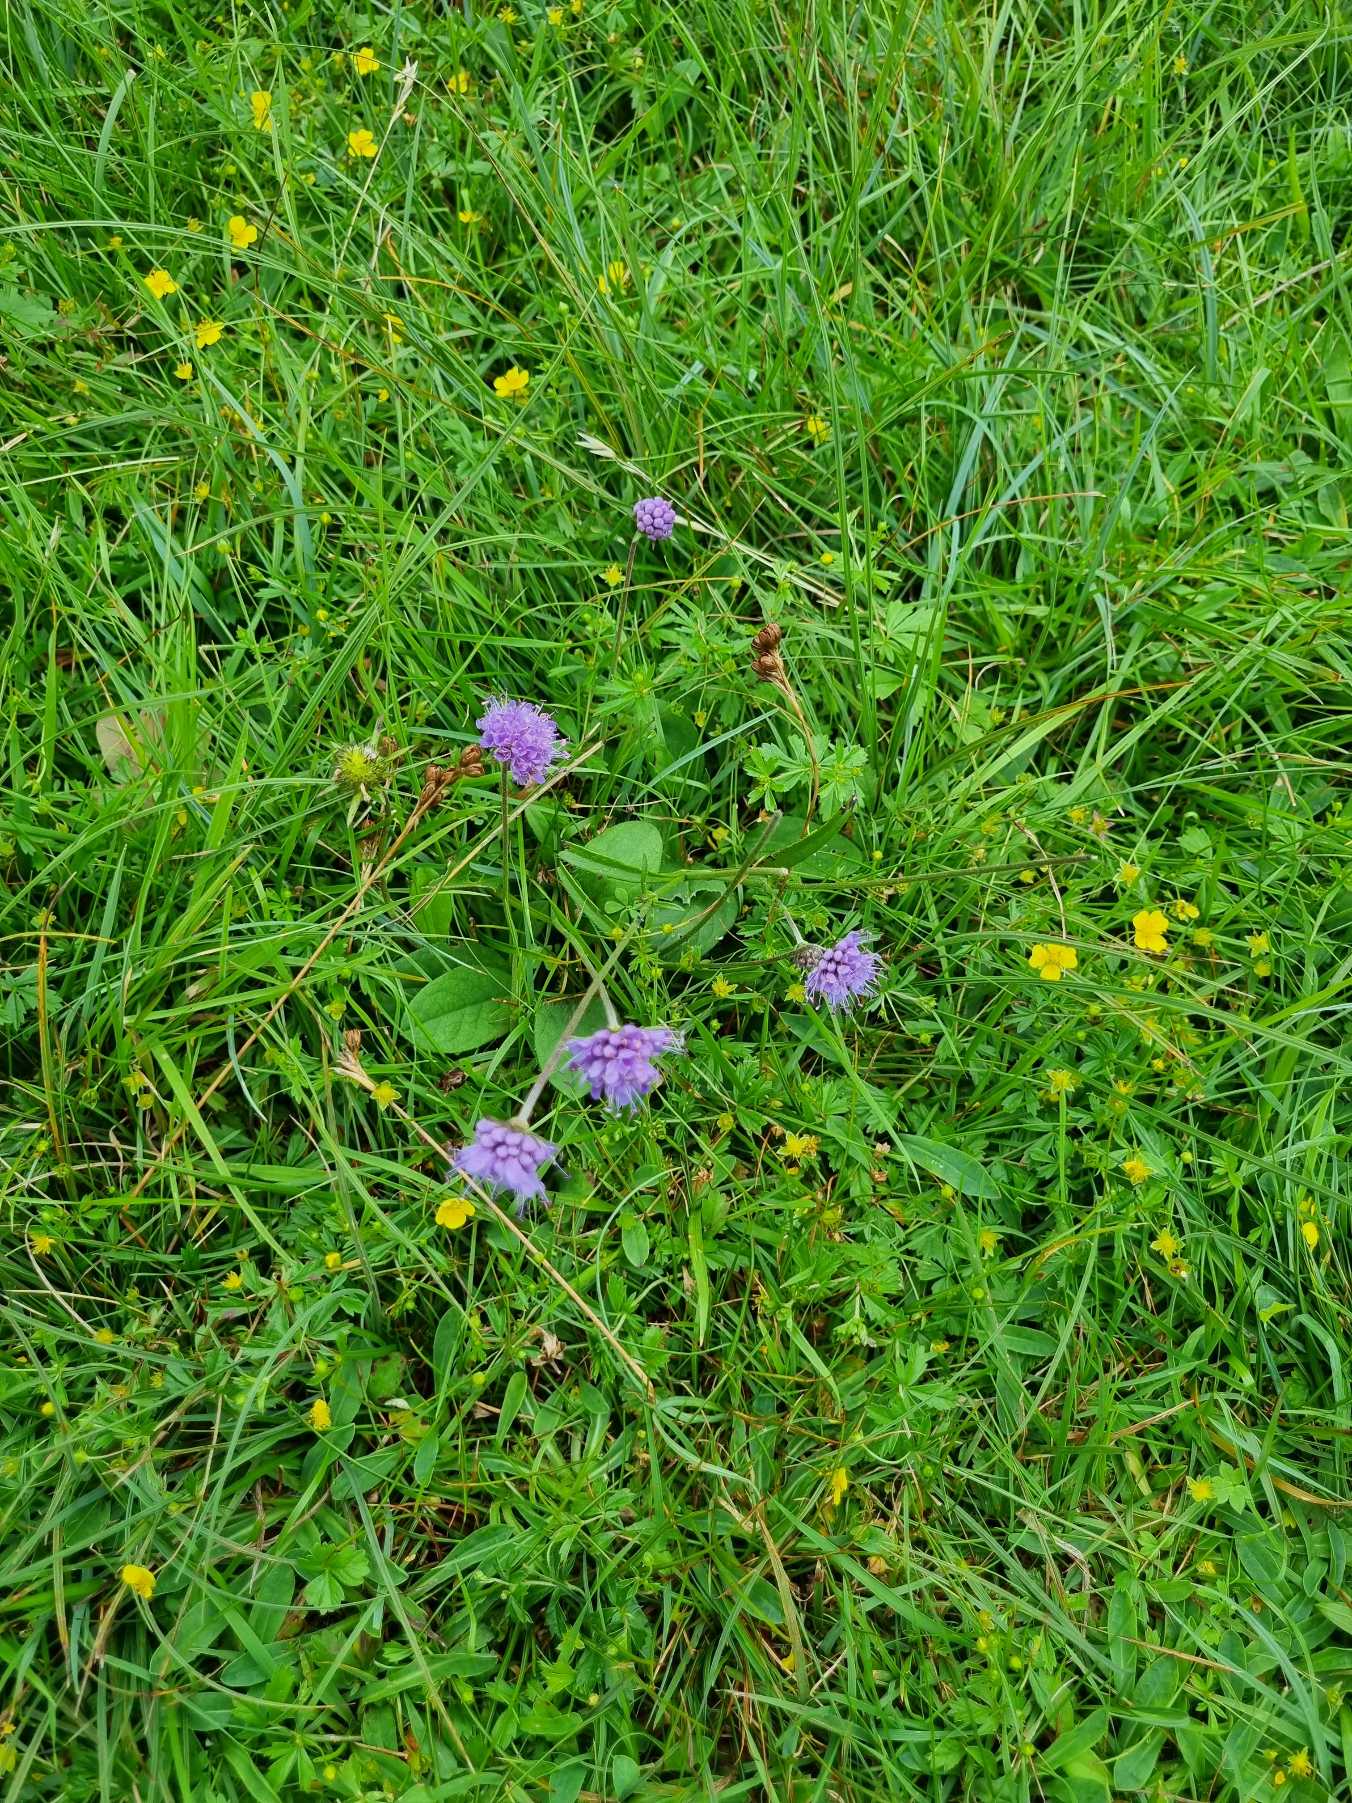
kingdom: Plantae
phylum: Tracheophyta
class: Magnoliopsida
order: Dipsacales
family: Caprifoliaceae
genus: Succisa
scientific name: Succisa pratensis
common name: Djævelsbid
